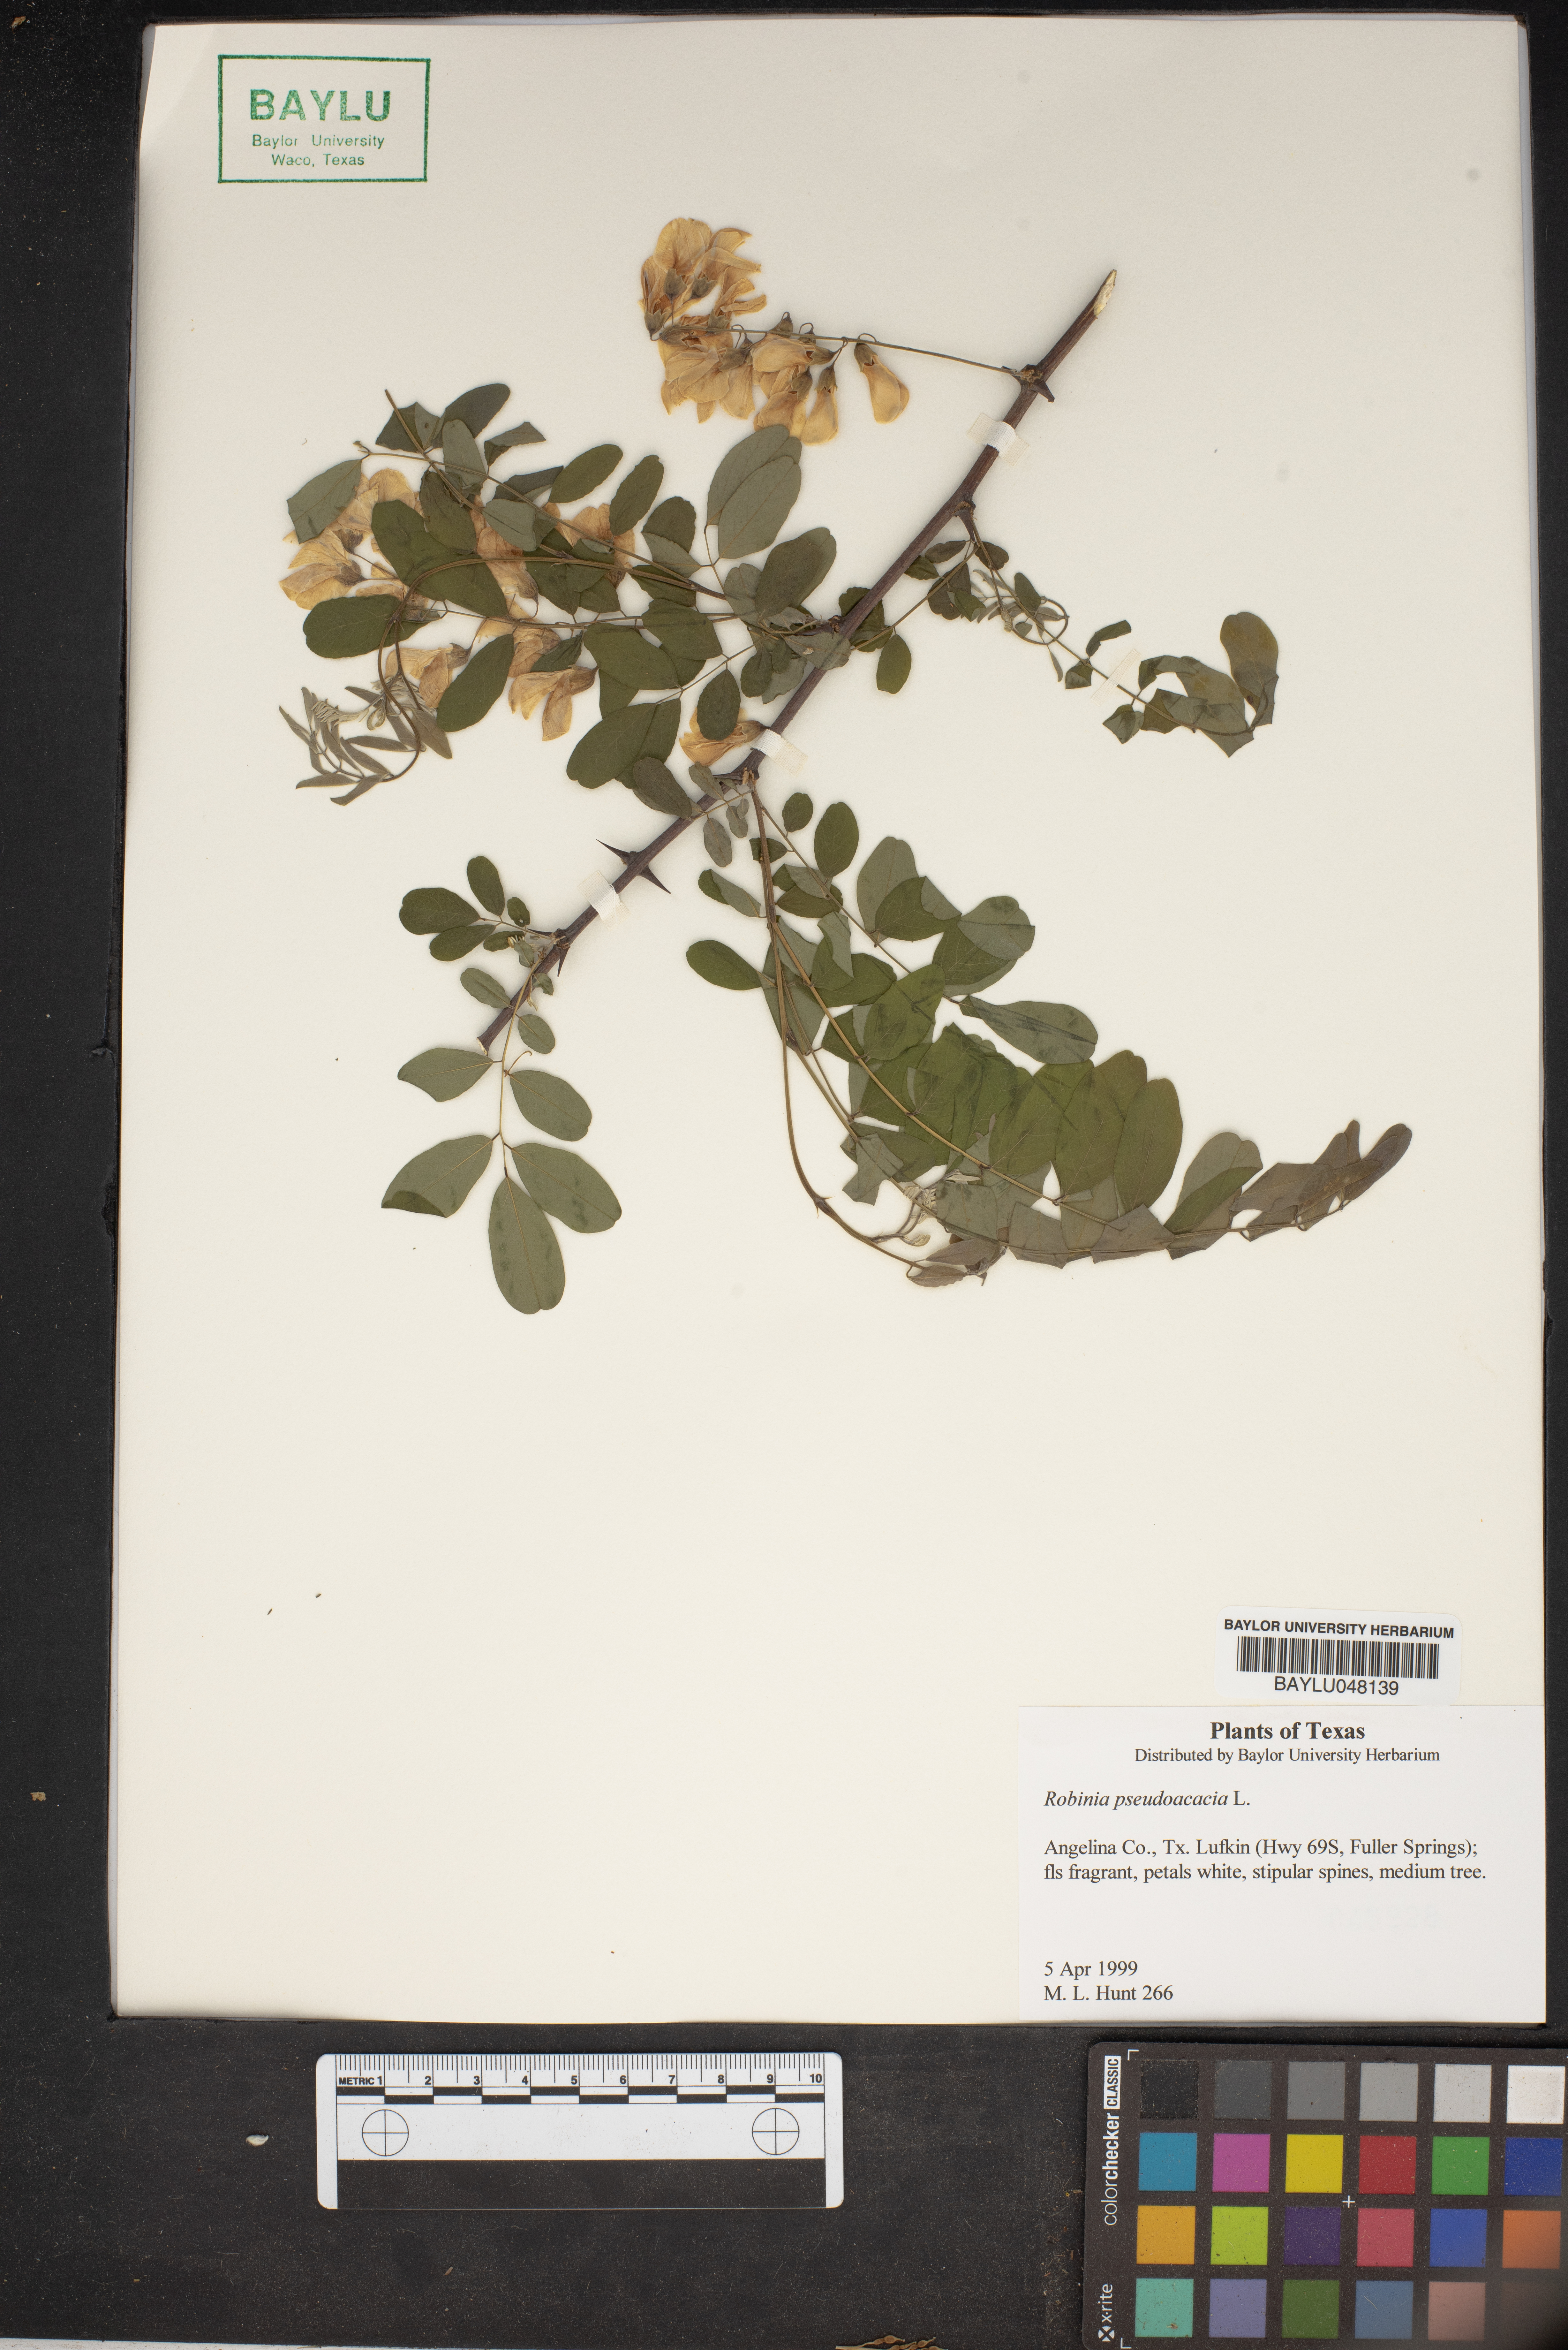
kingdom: Plantae
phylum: Tracheophyta
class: Magnoliopsida
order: Fabales
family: Fabaceae
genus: Robinia
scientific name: Robinia pseudoacacia
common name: Black locust
